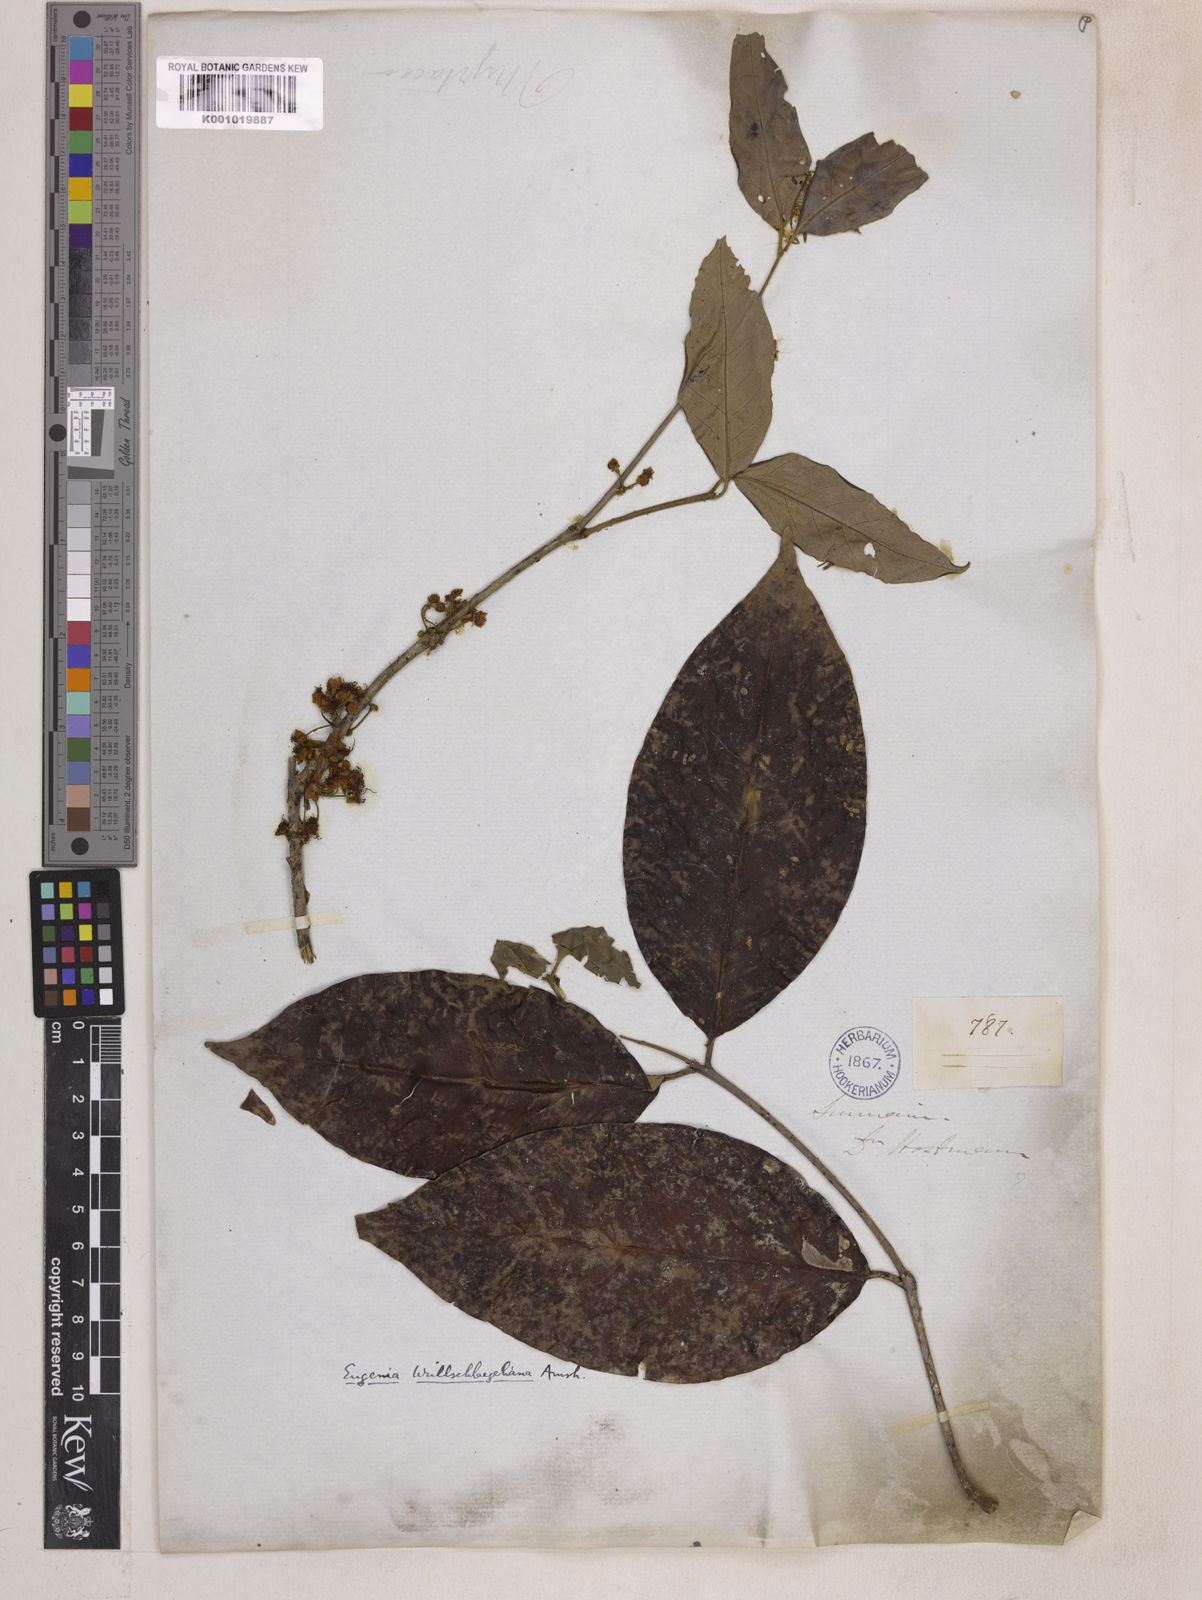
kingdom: Plantae
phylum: Tracheophyta
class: Magnoliopsida
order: Myrtales
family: Myrtaceae
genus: Eugenia
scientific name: Eugenia wullschlaegeliana
